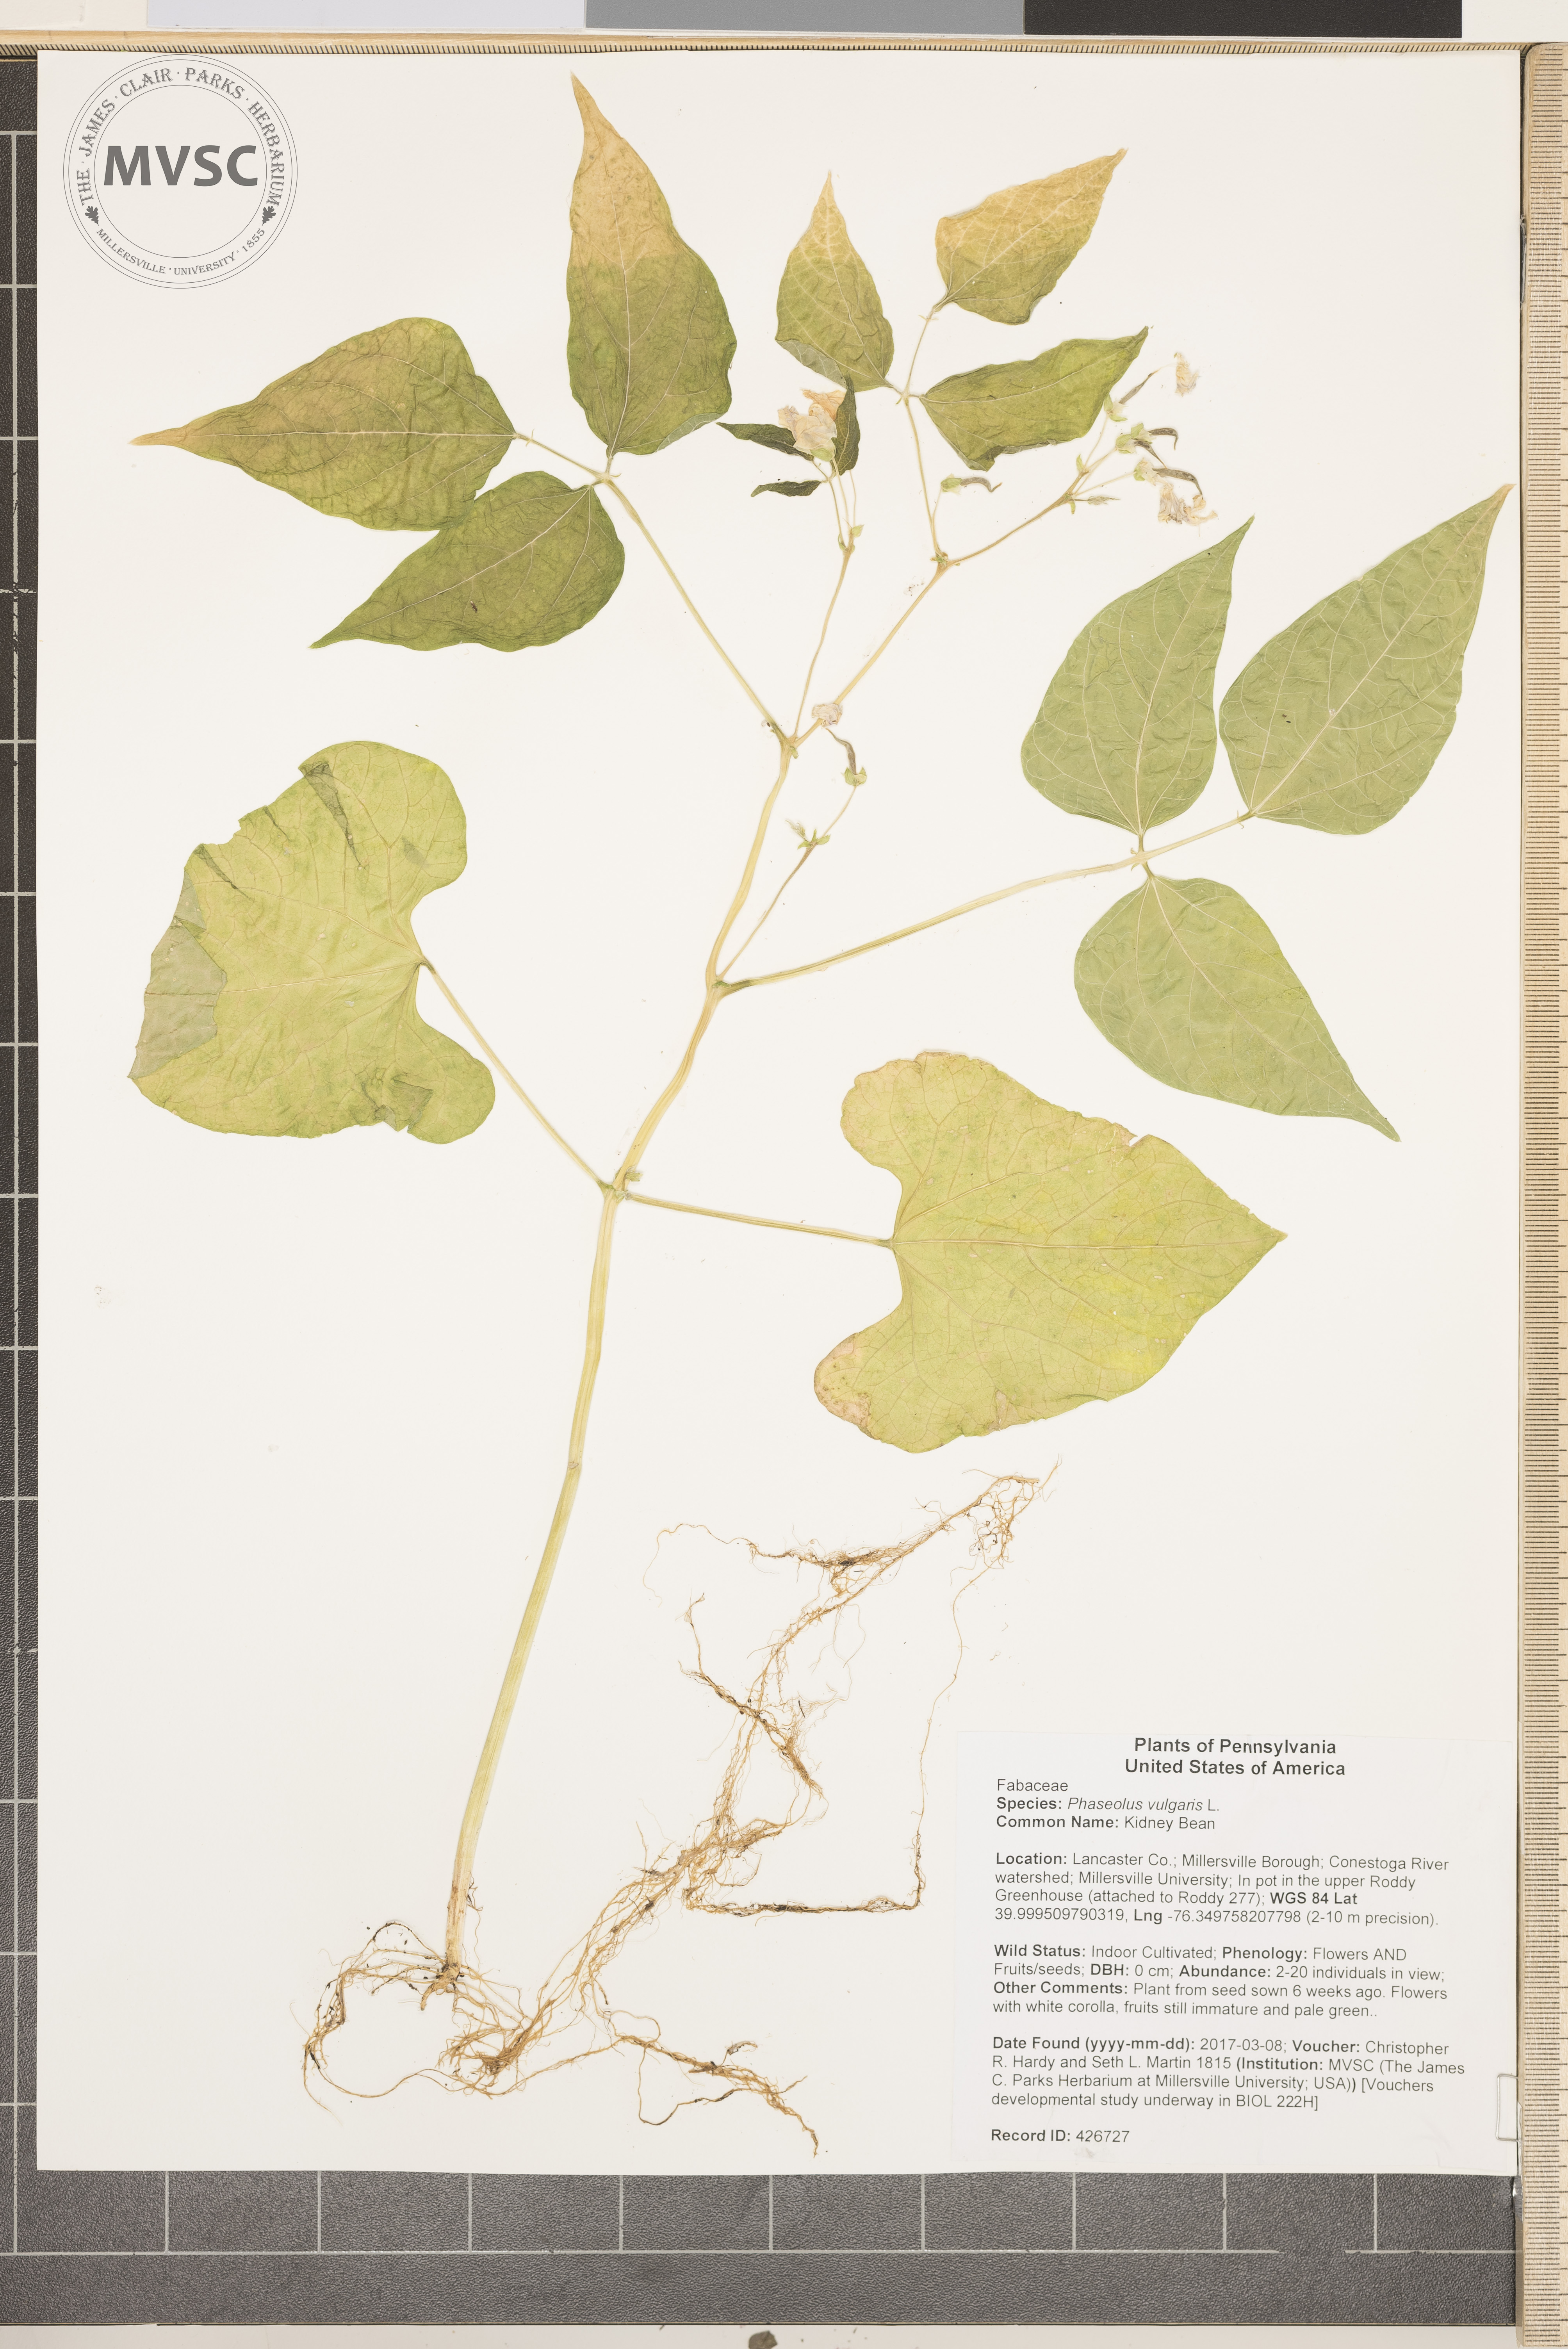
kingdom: Plantae
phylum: Tracheophyta
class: Magnoliopsida
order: Fabales
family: Fabaceae
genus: Phaseolus
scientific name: Phaseolus vulgaris
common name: Kidney Bean
